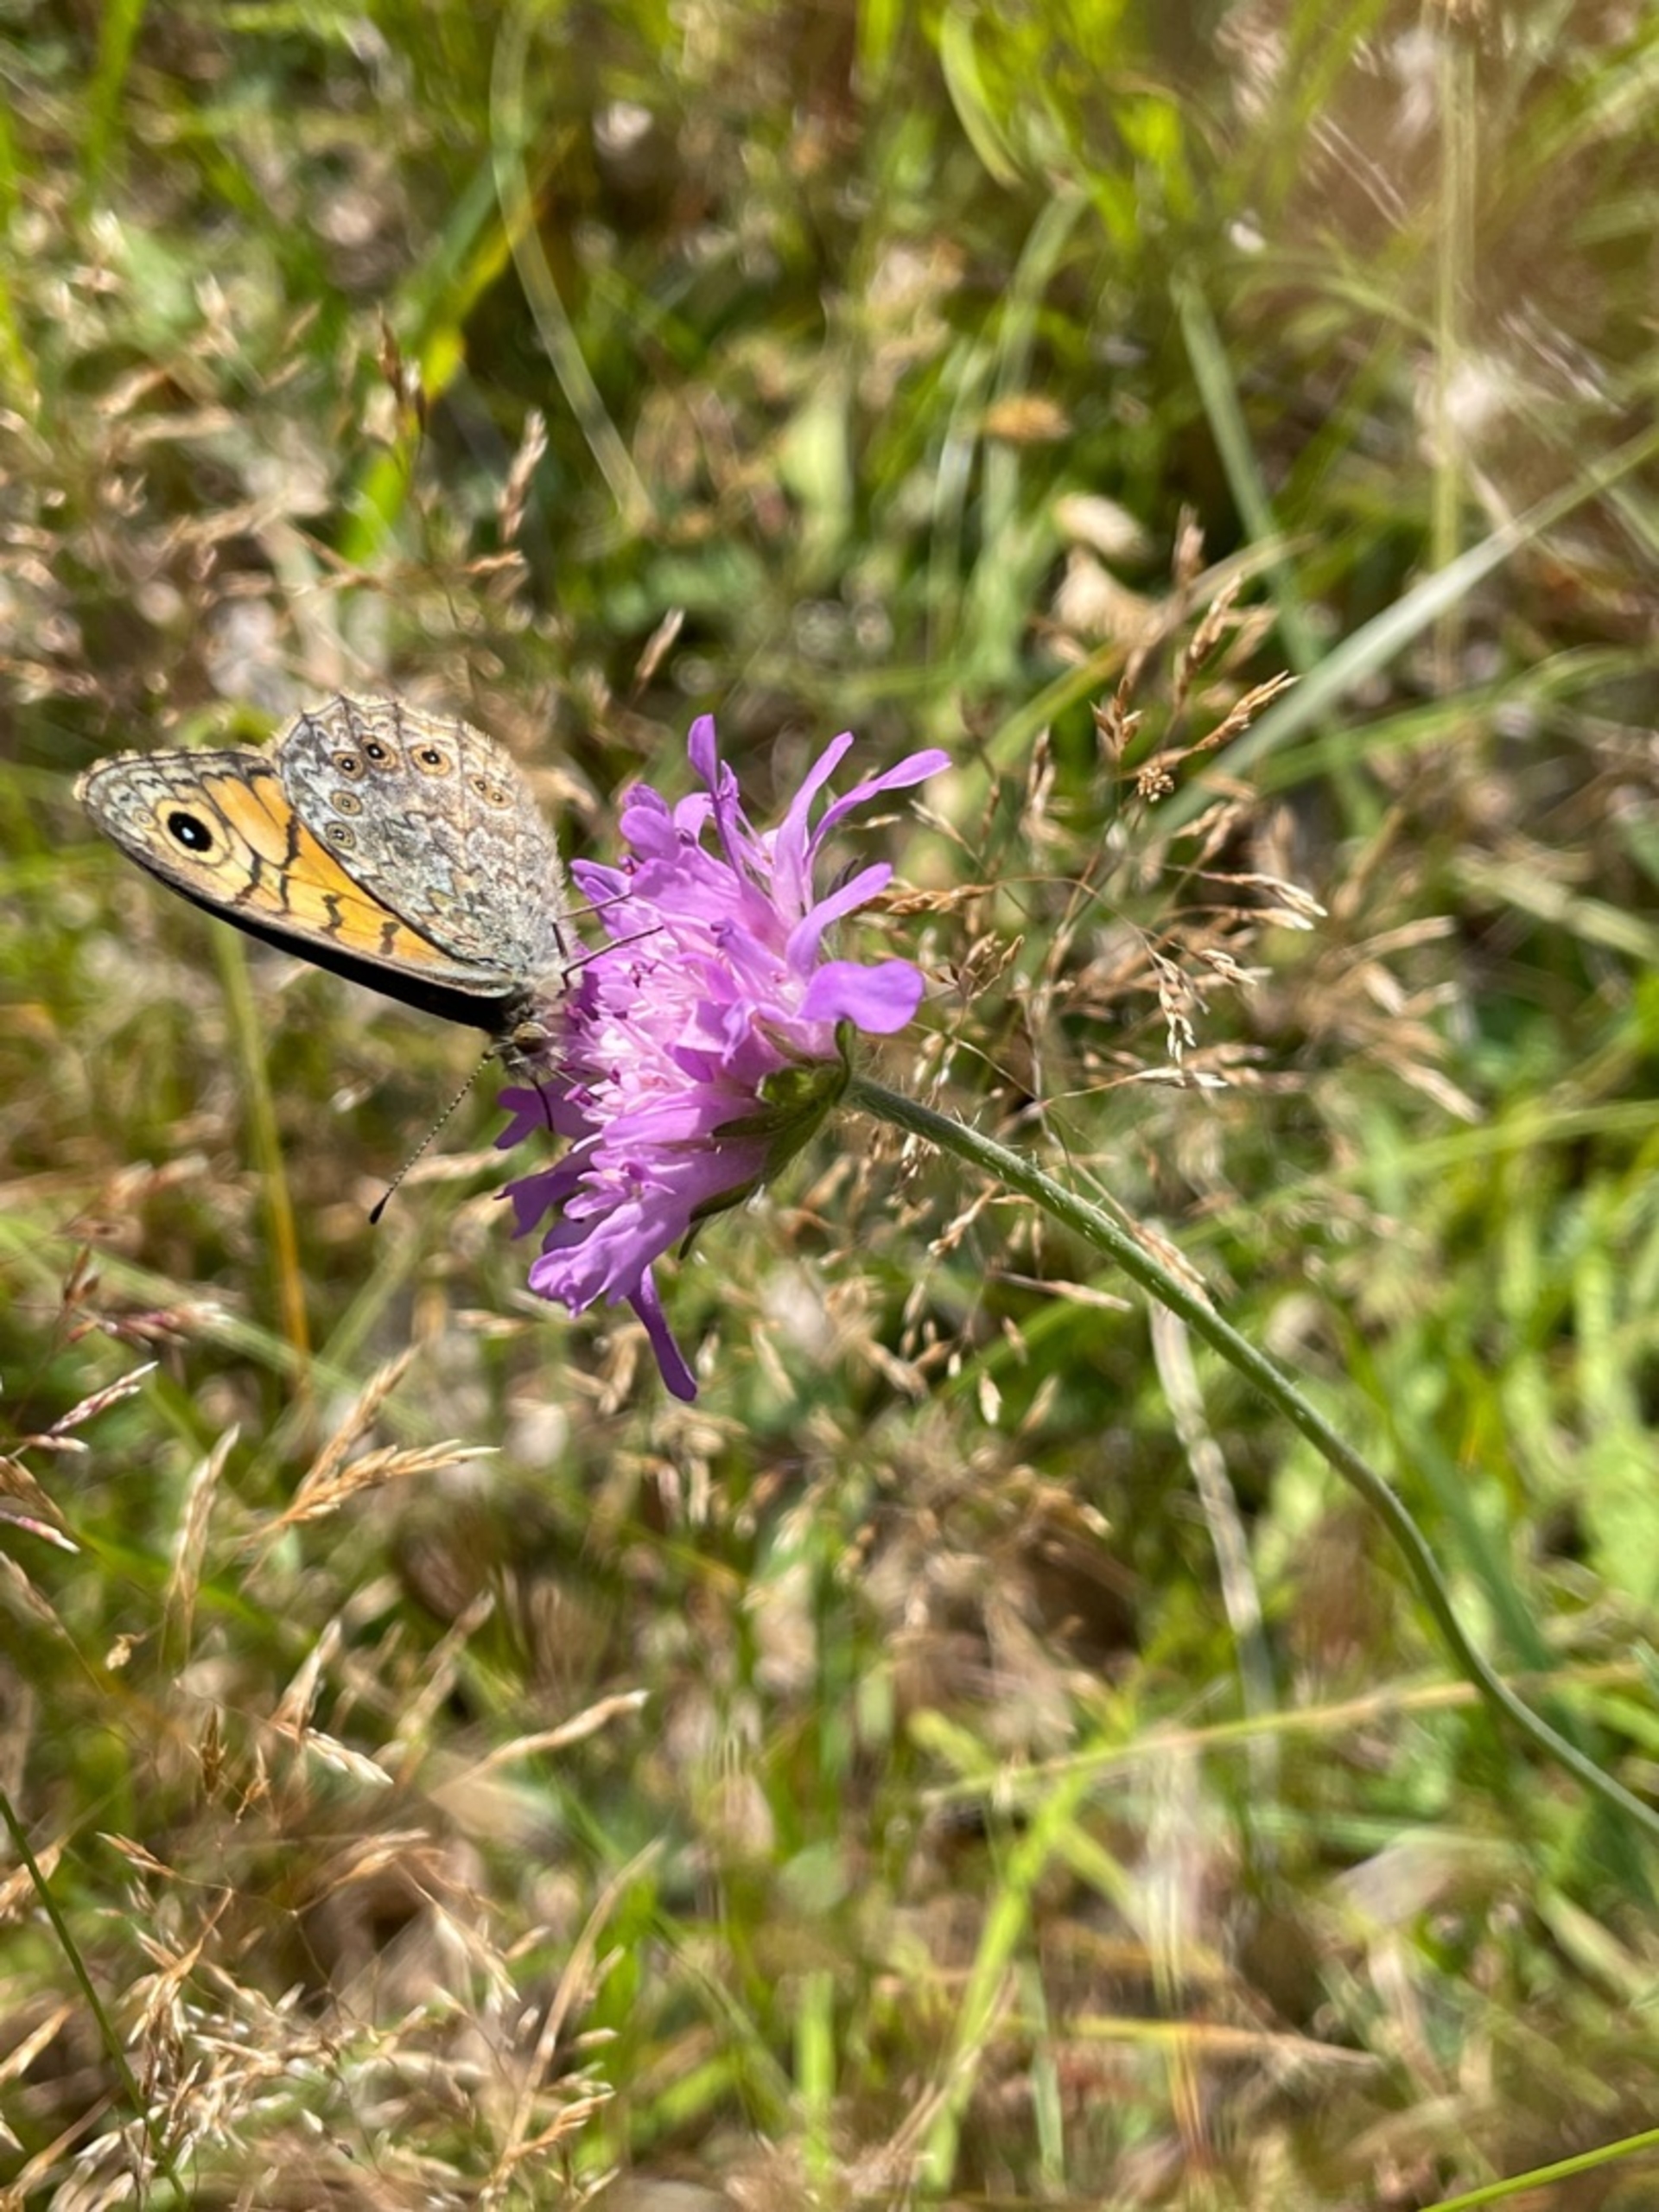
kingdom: Animalia
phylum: Arthropoda
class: Insecta
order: Lepidoptera
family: Nymphalidae
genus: Pararge
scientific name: Pararge Lasiommata megera
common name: Vejrandøje
